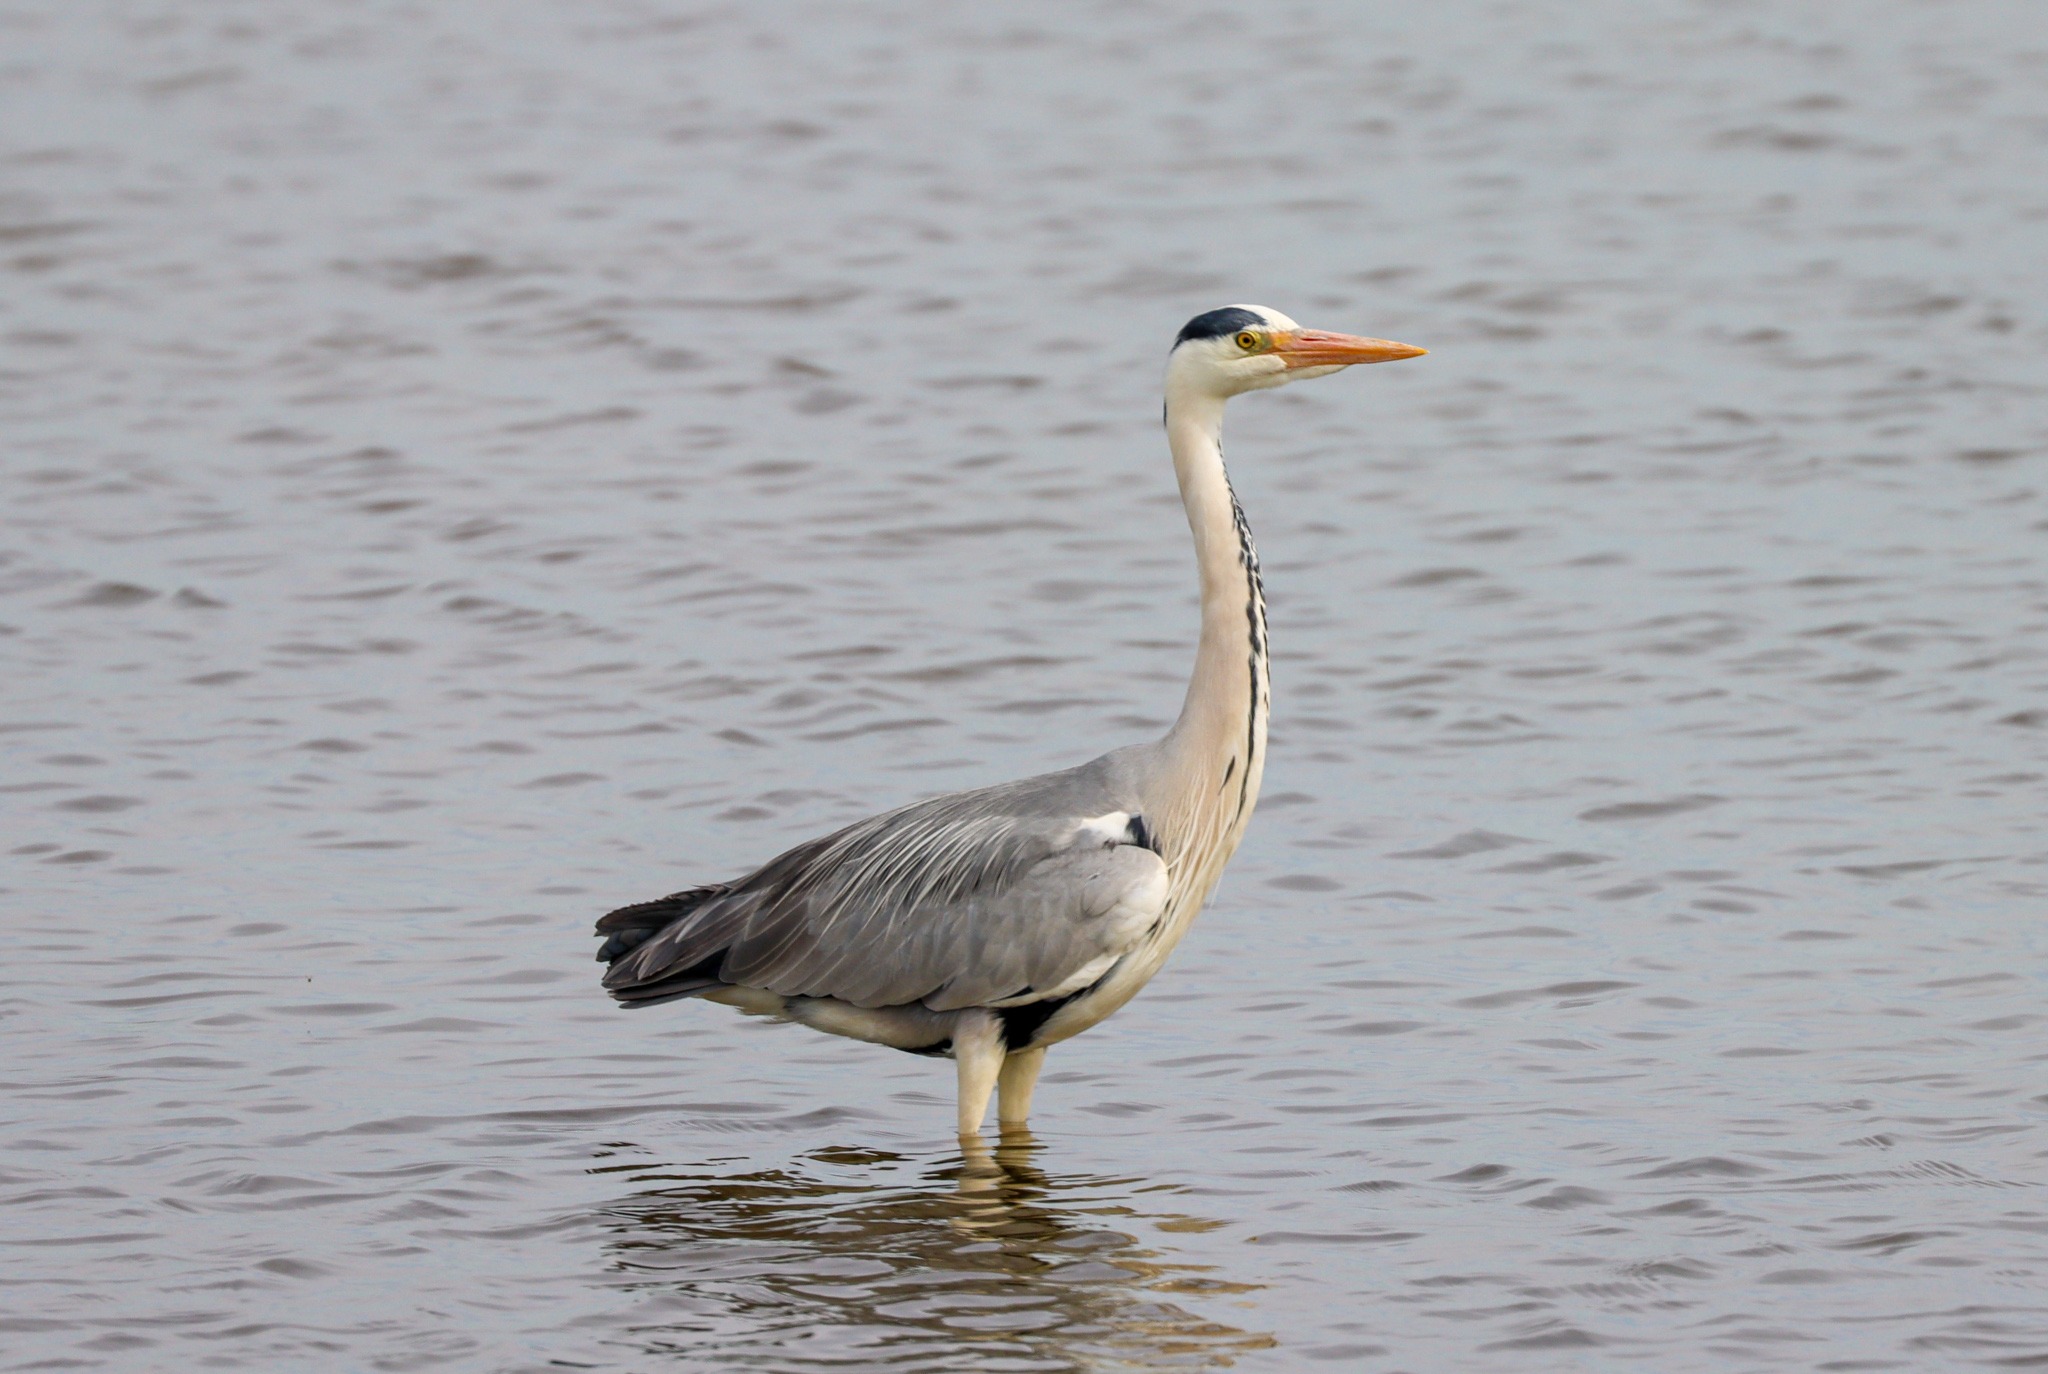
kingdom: Animalia
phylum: Chordata
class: Aves
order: Pelecaniformes
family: Ardeidae
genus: Ardea
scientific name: Ardea cinerea
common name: Fiskehejre
